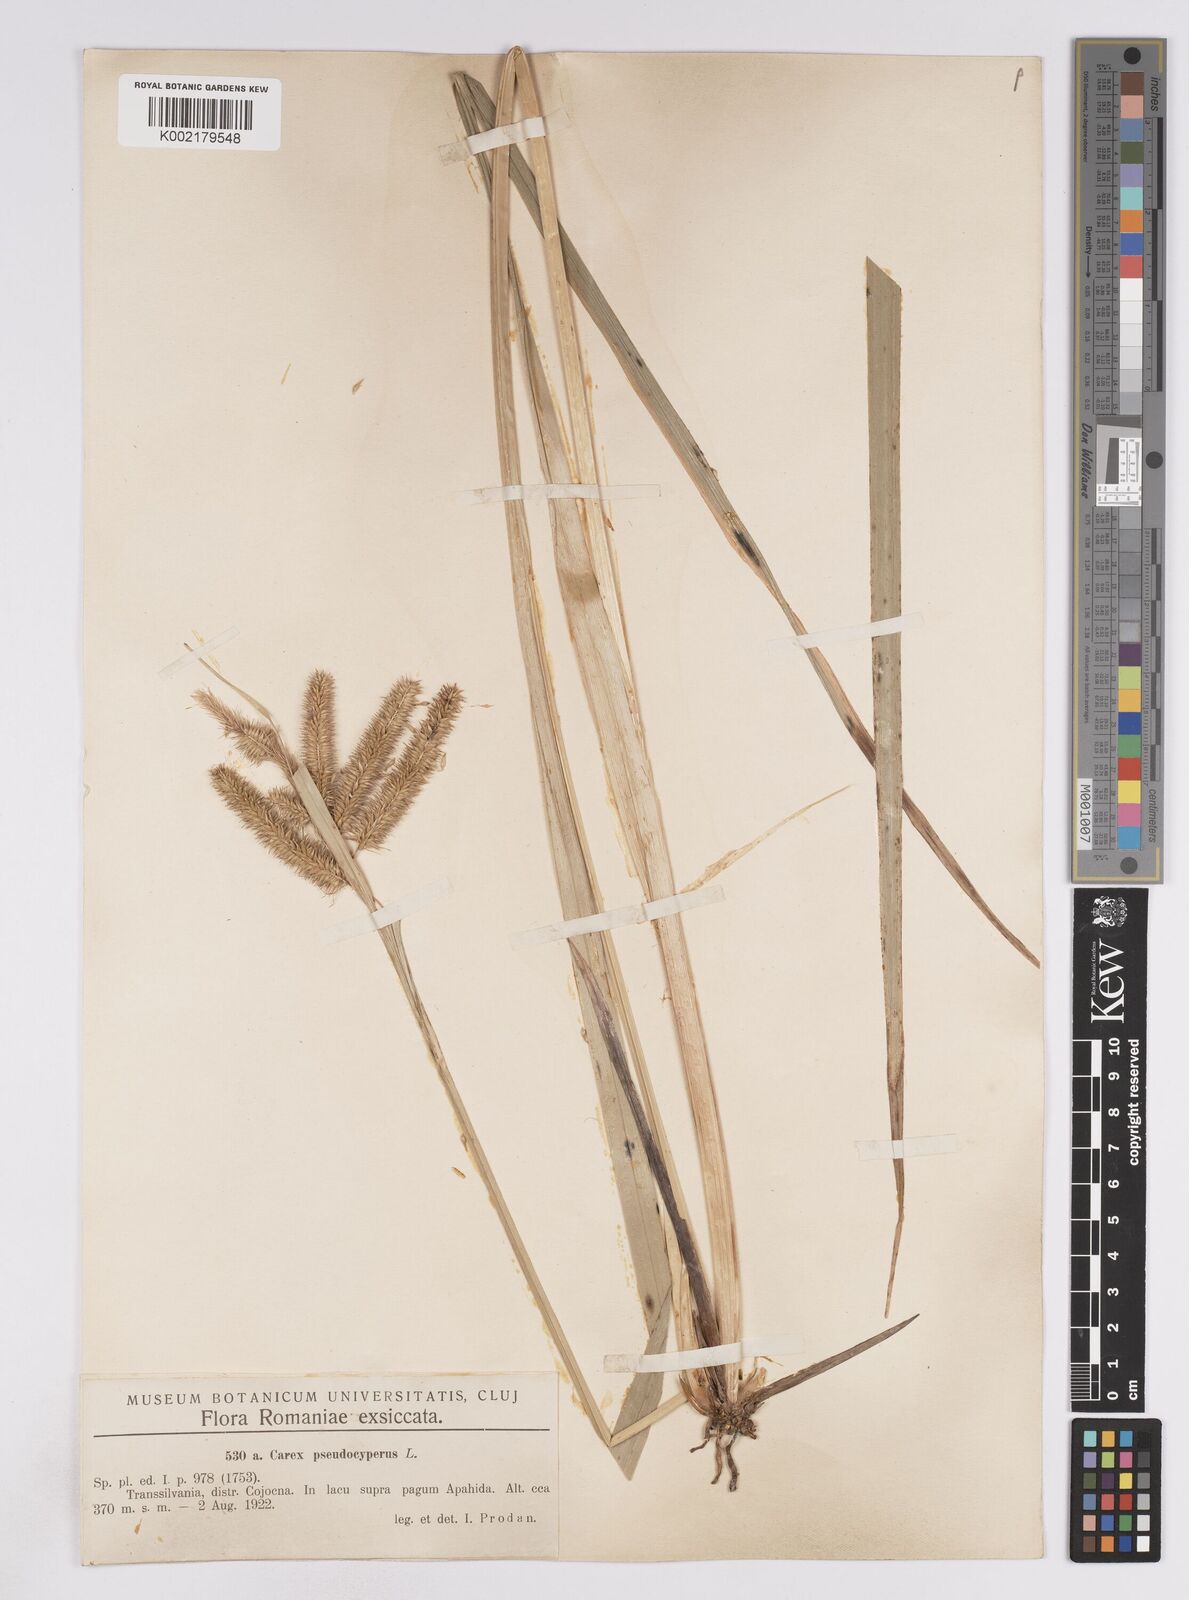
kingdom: Plantae
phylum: Tracheophyta
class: Liliopsida
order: Poales
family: Cyperaceae
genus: Carex
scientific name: Carex pseudocyperus
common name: Cyperus sedge
